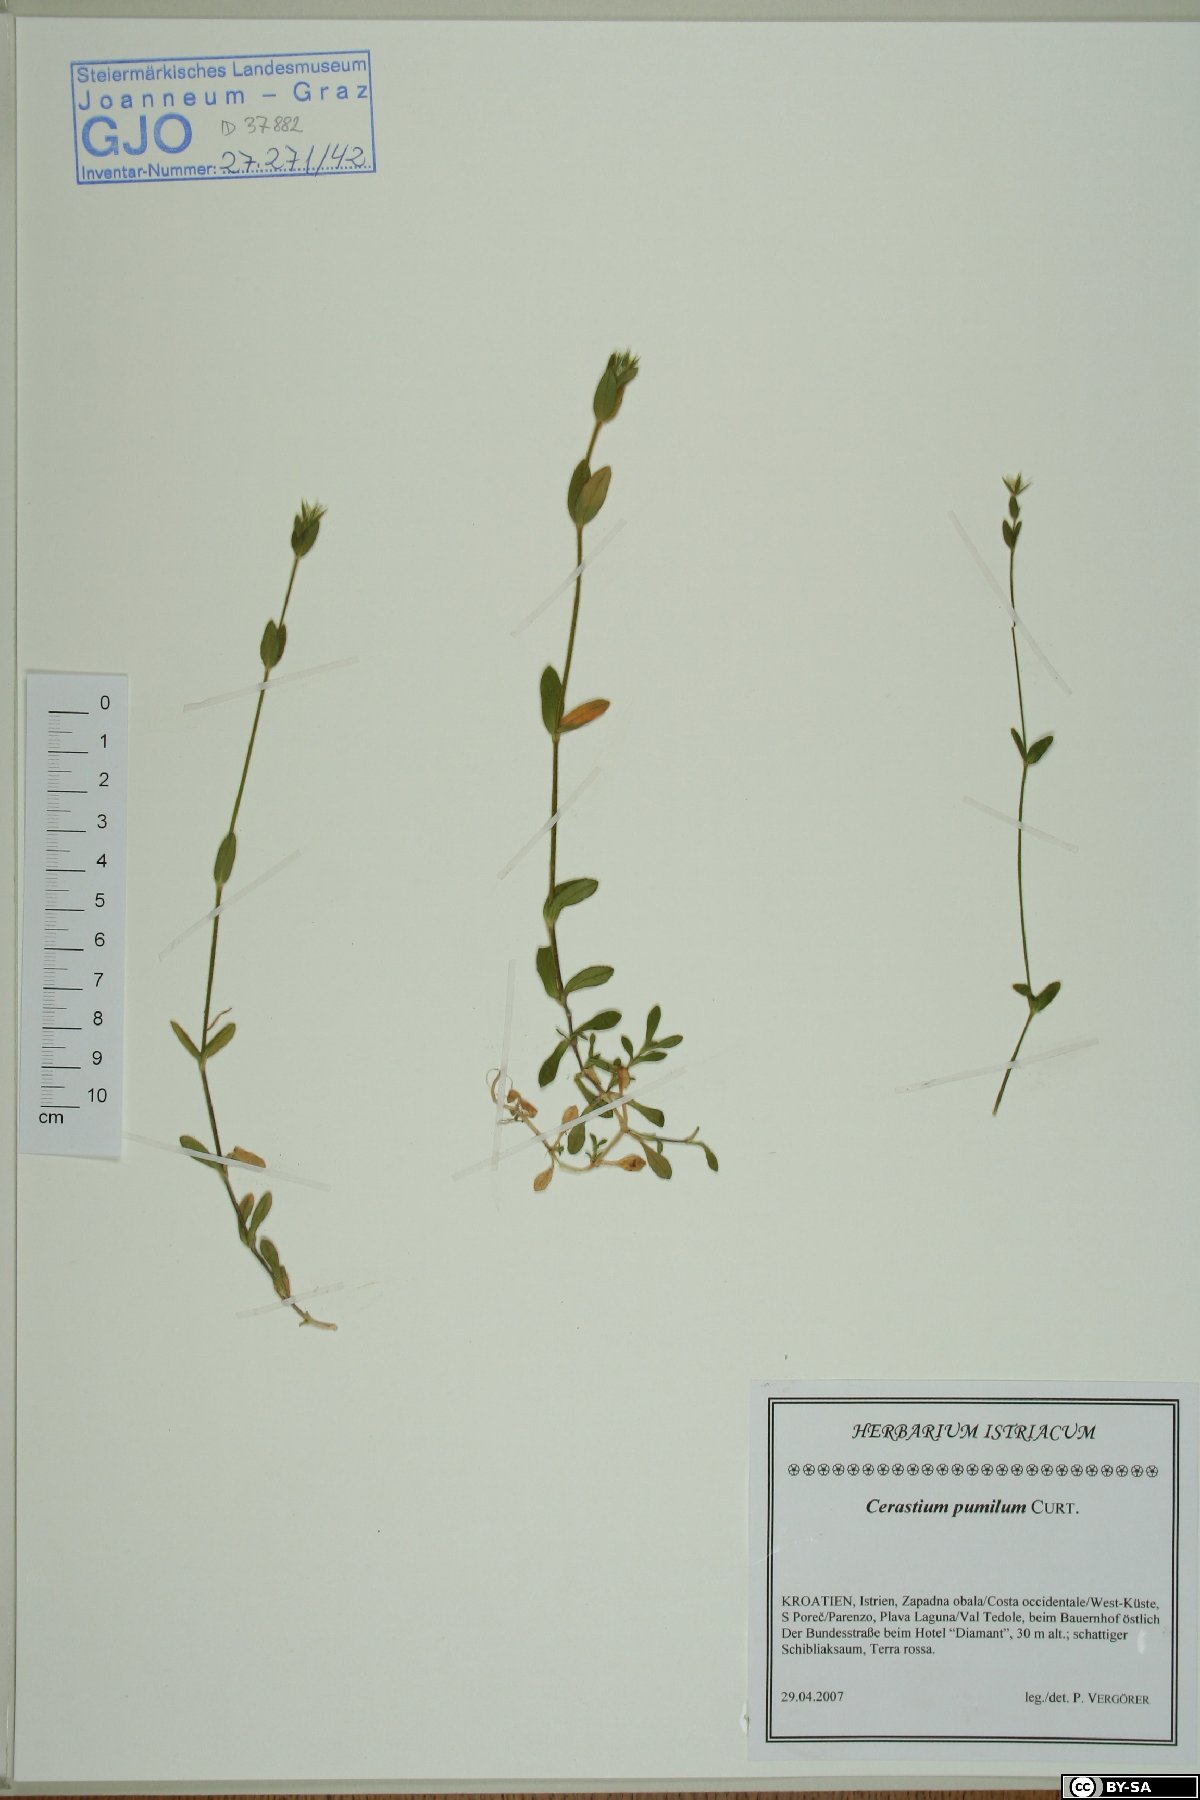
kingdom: Plantae
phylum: Tracheophyta
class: Magnoliopsida
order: Caryophyllales
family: Caryophyllaceae
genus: Cerastium
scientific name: Cerastium pumilum
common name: Dwarf mouse-ear
